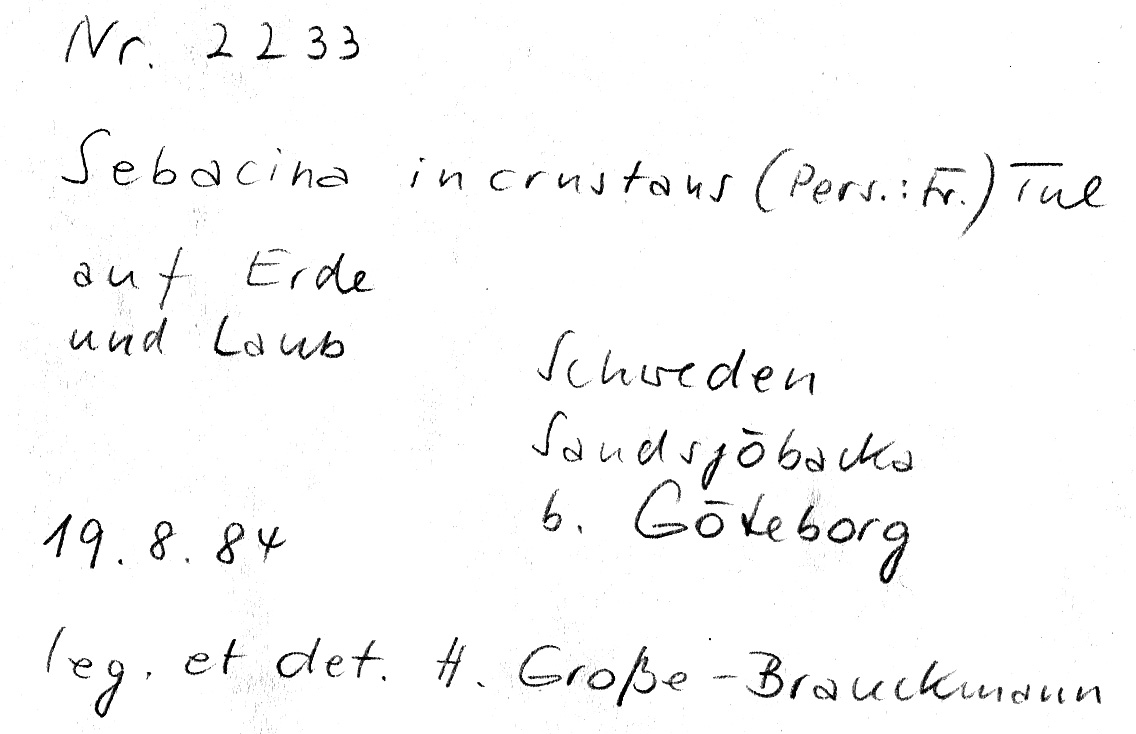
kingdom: Fungi
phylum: Basidiomycota
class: Agaricomycetes
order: Sebacinales
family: Sebacinaceae
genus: Sebacina
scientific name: Sebacina incrustans
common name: Enveloping crust
